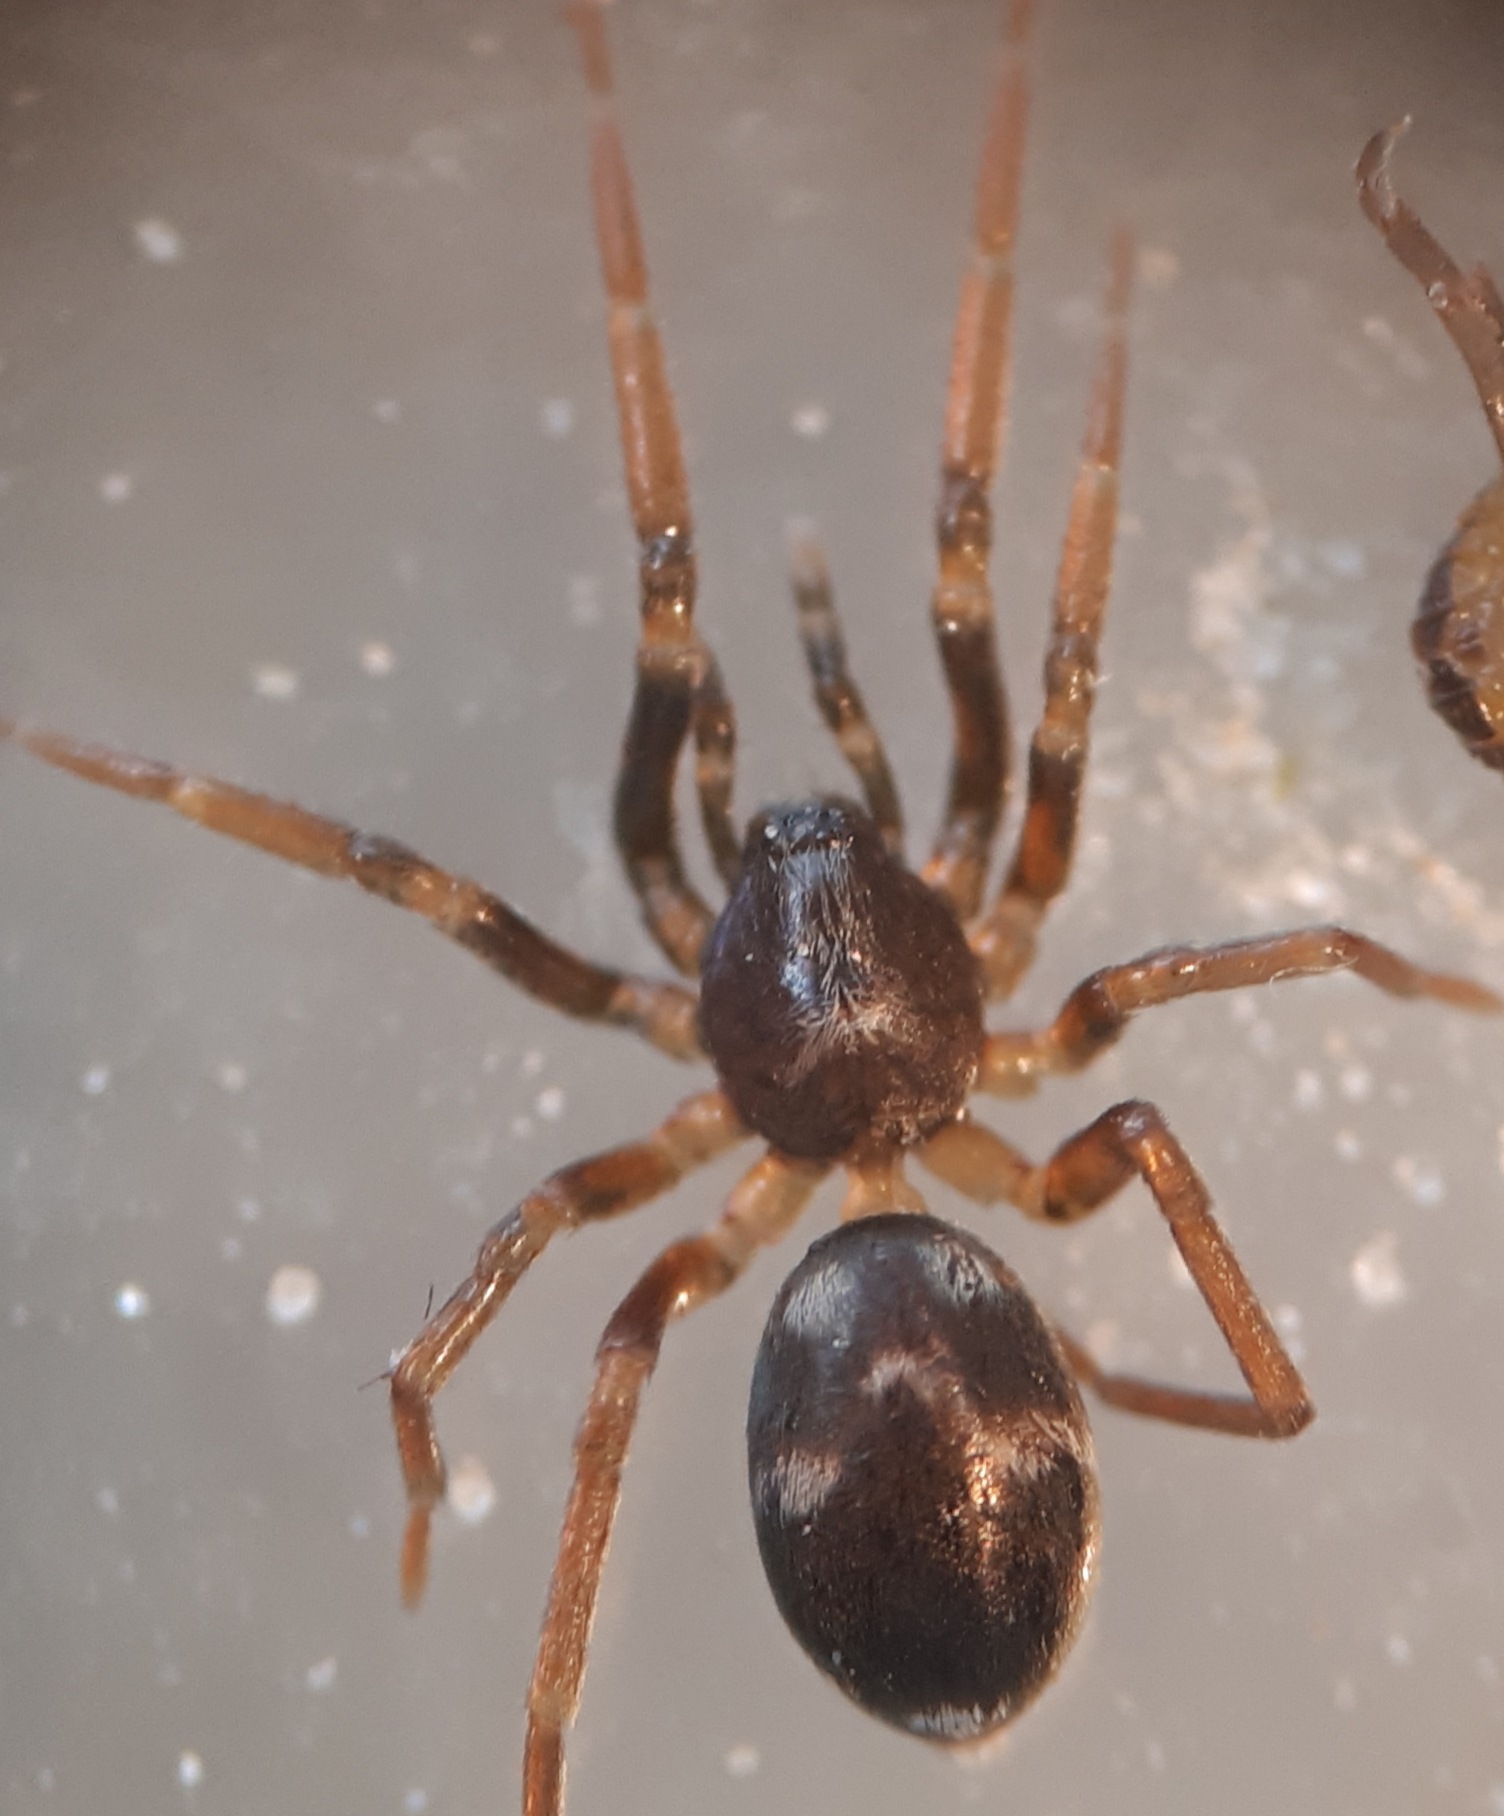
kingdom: Animalia
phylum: Arthropoda
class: Arachnida
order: Araneae
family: Phrurolithidae
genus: Phrurolithus
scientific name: Phrurolithus festivus
